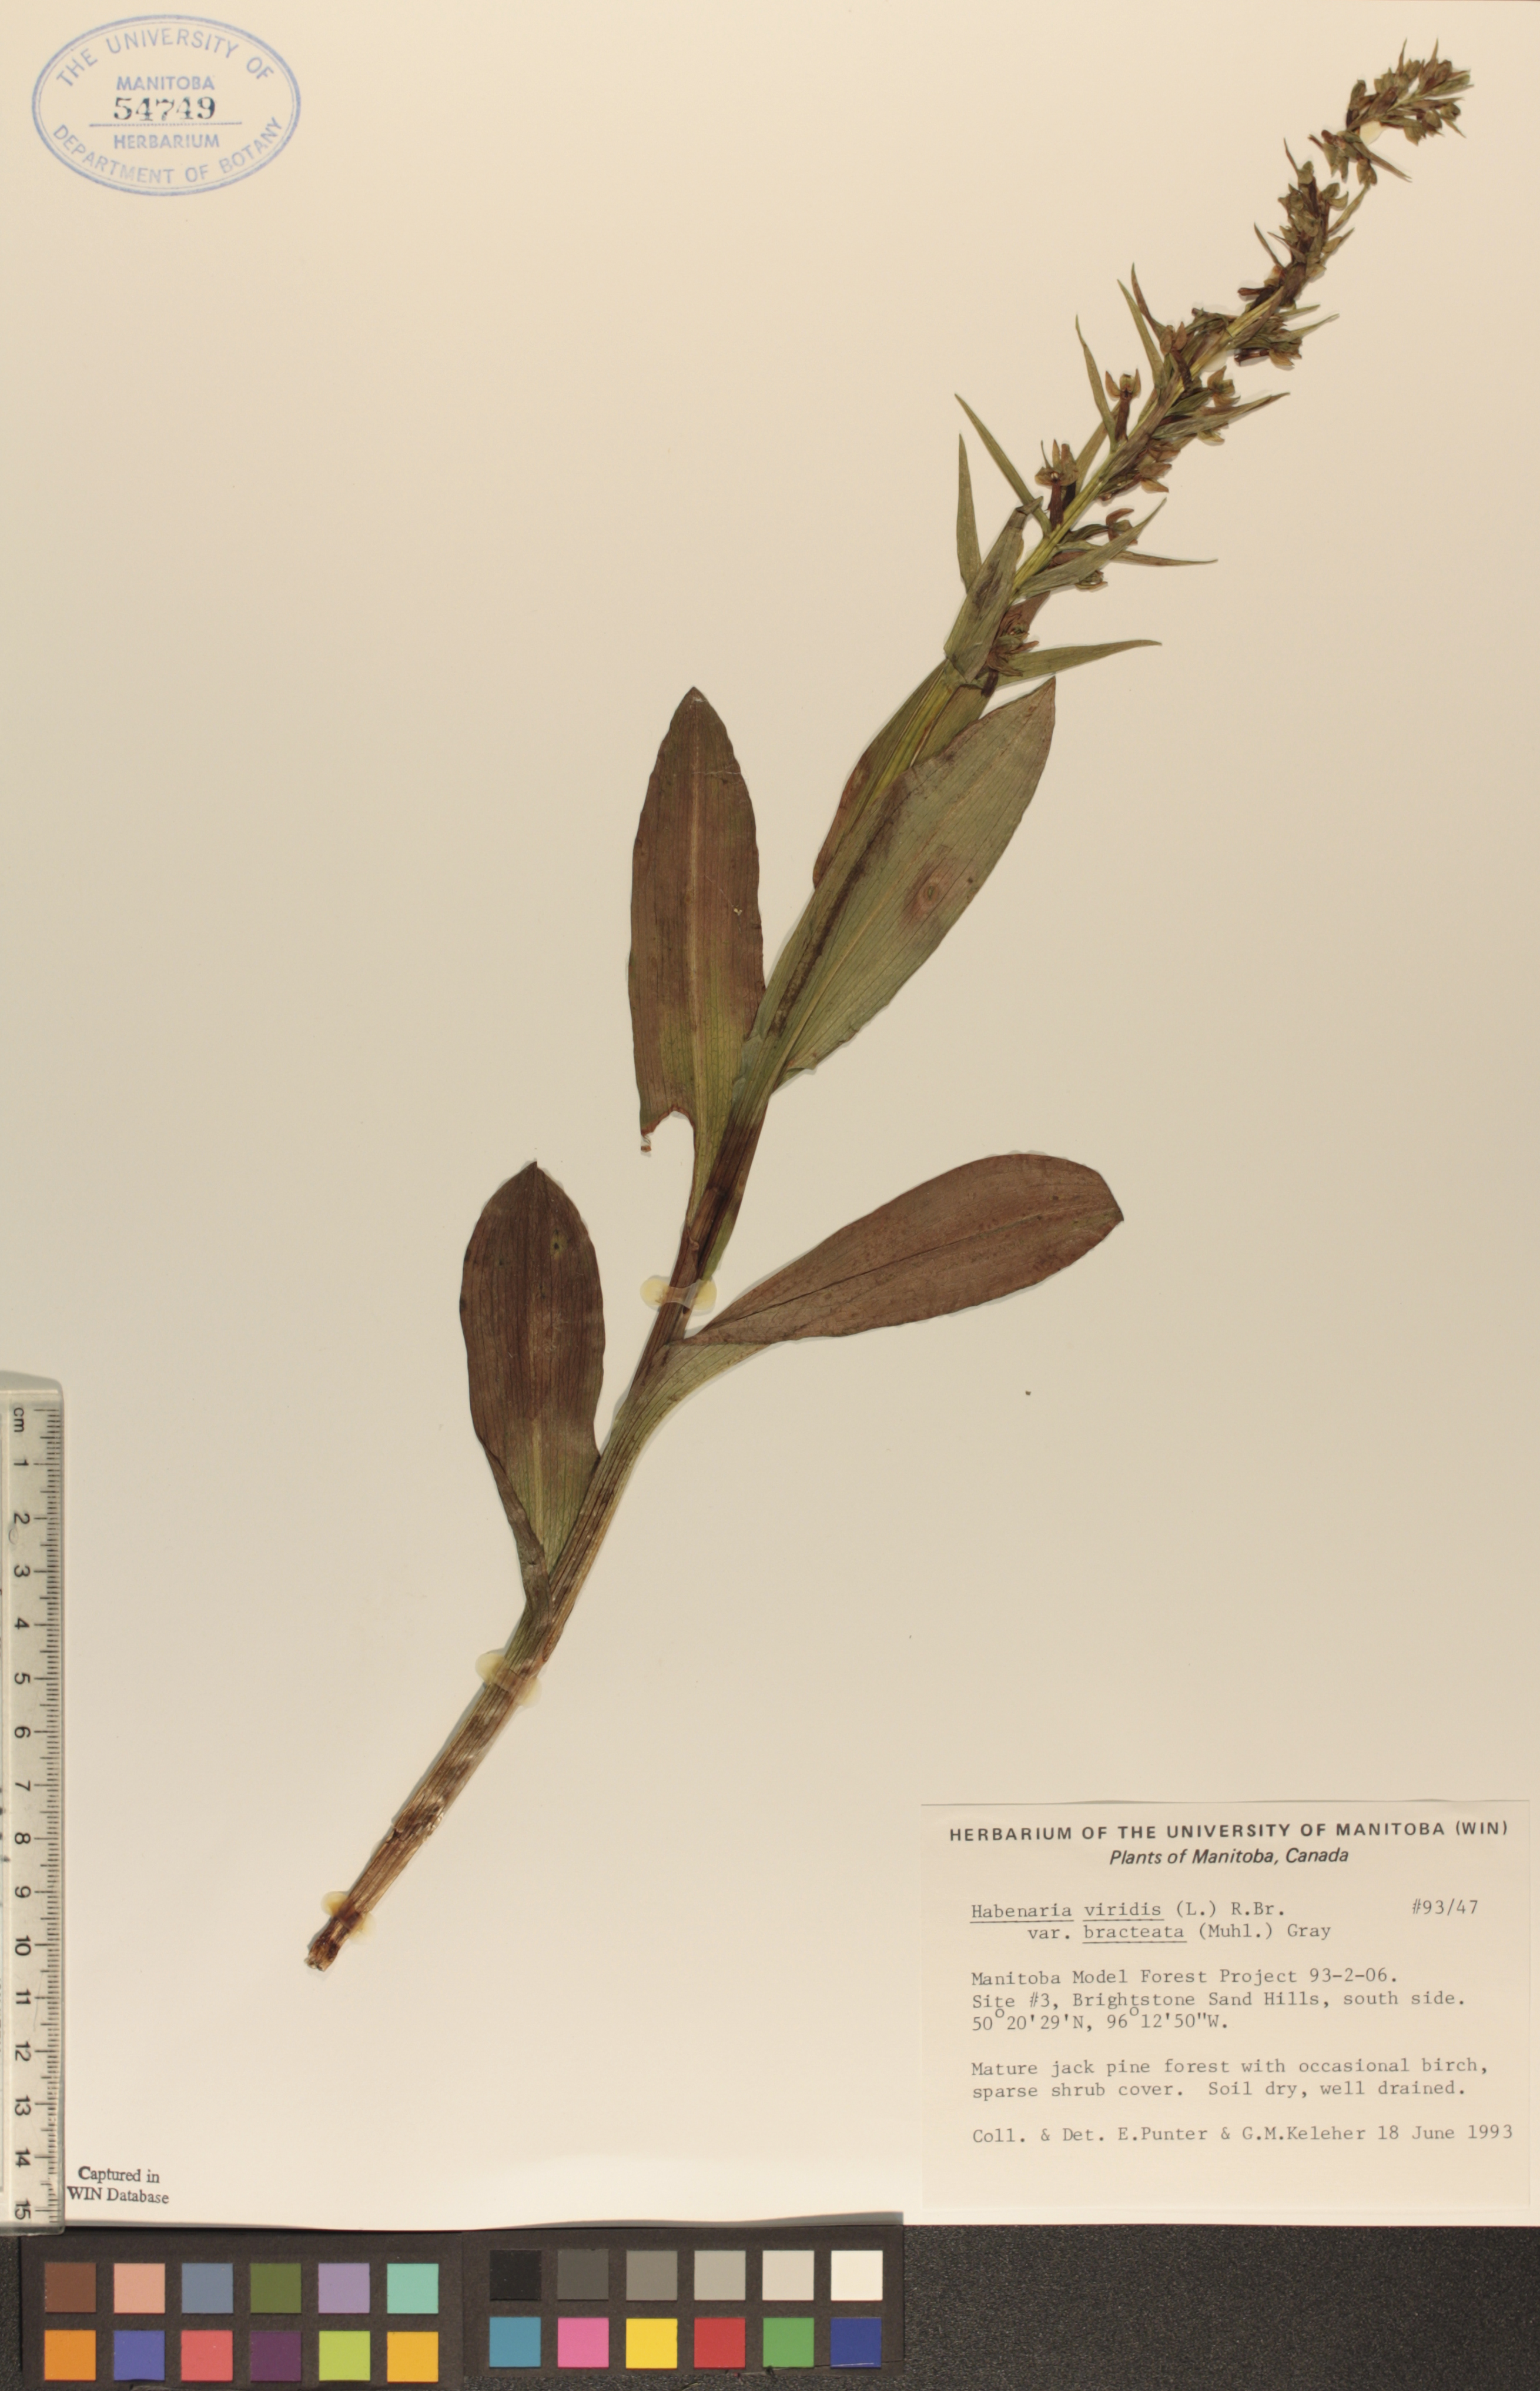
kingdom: Plantae
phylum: Tracheophyta
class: Liliopsida
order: Asparagales
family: Orchidaceae
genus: Dactylorhiza
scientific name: Dactylorhiza viridis
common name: Longbract frog orchid
